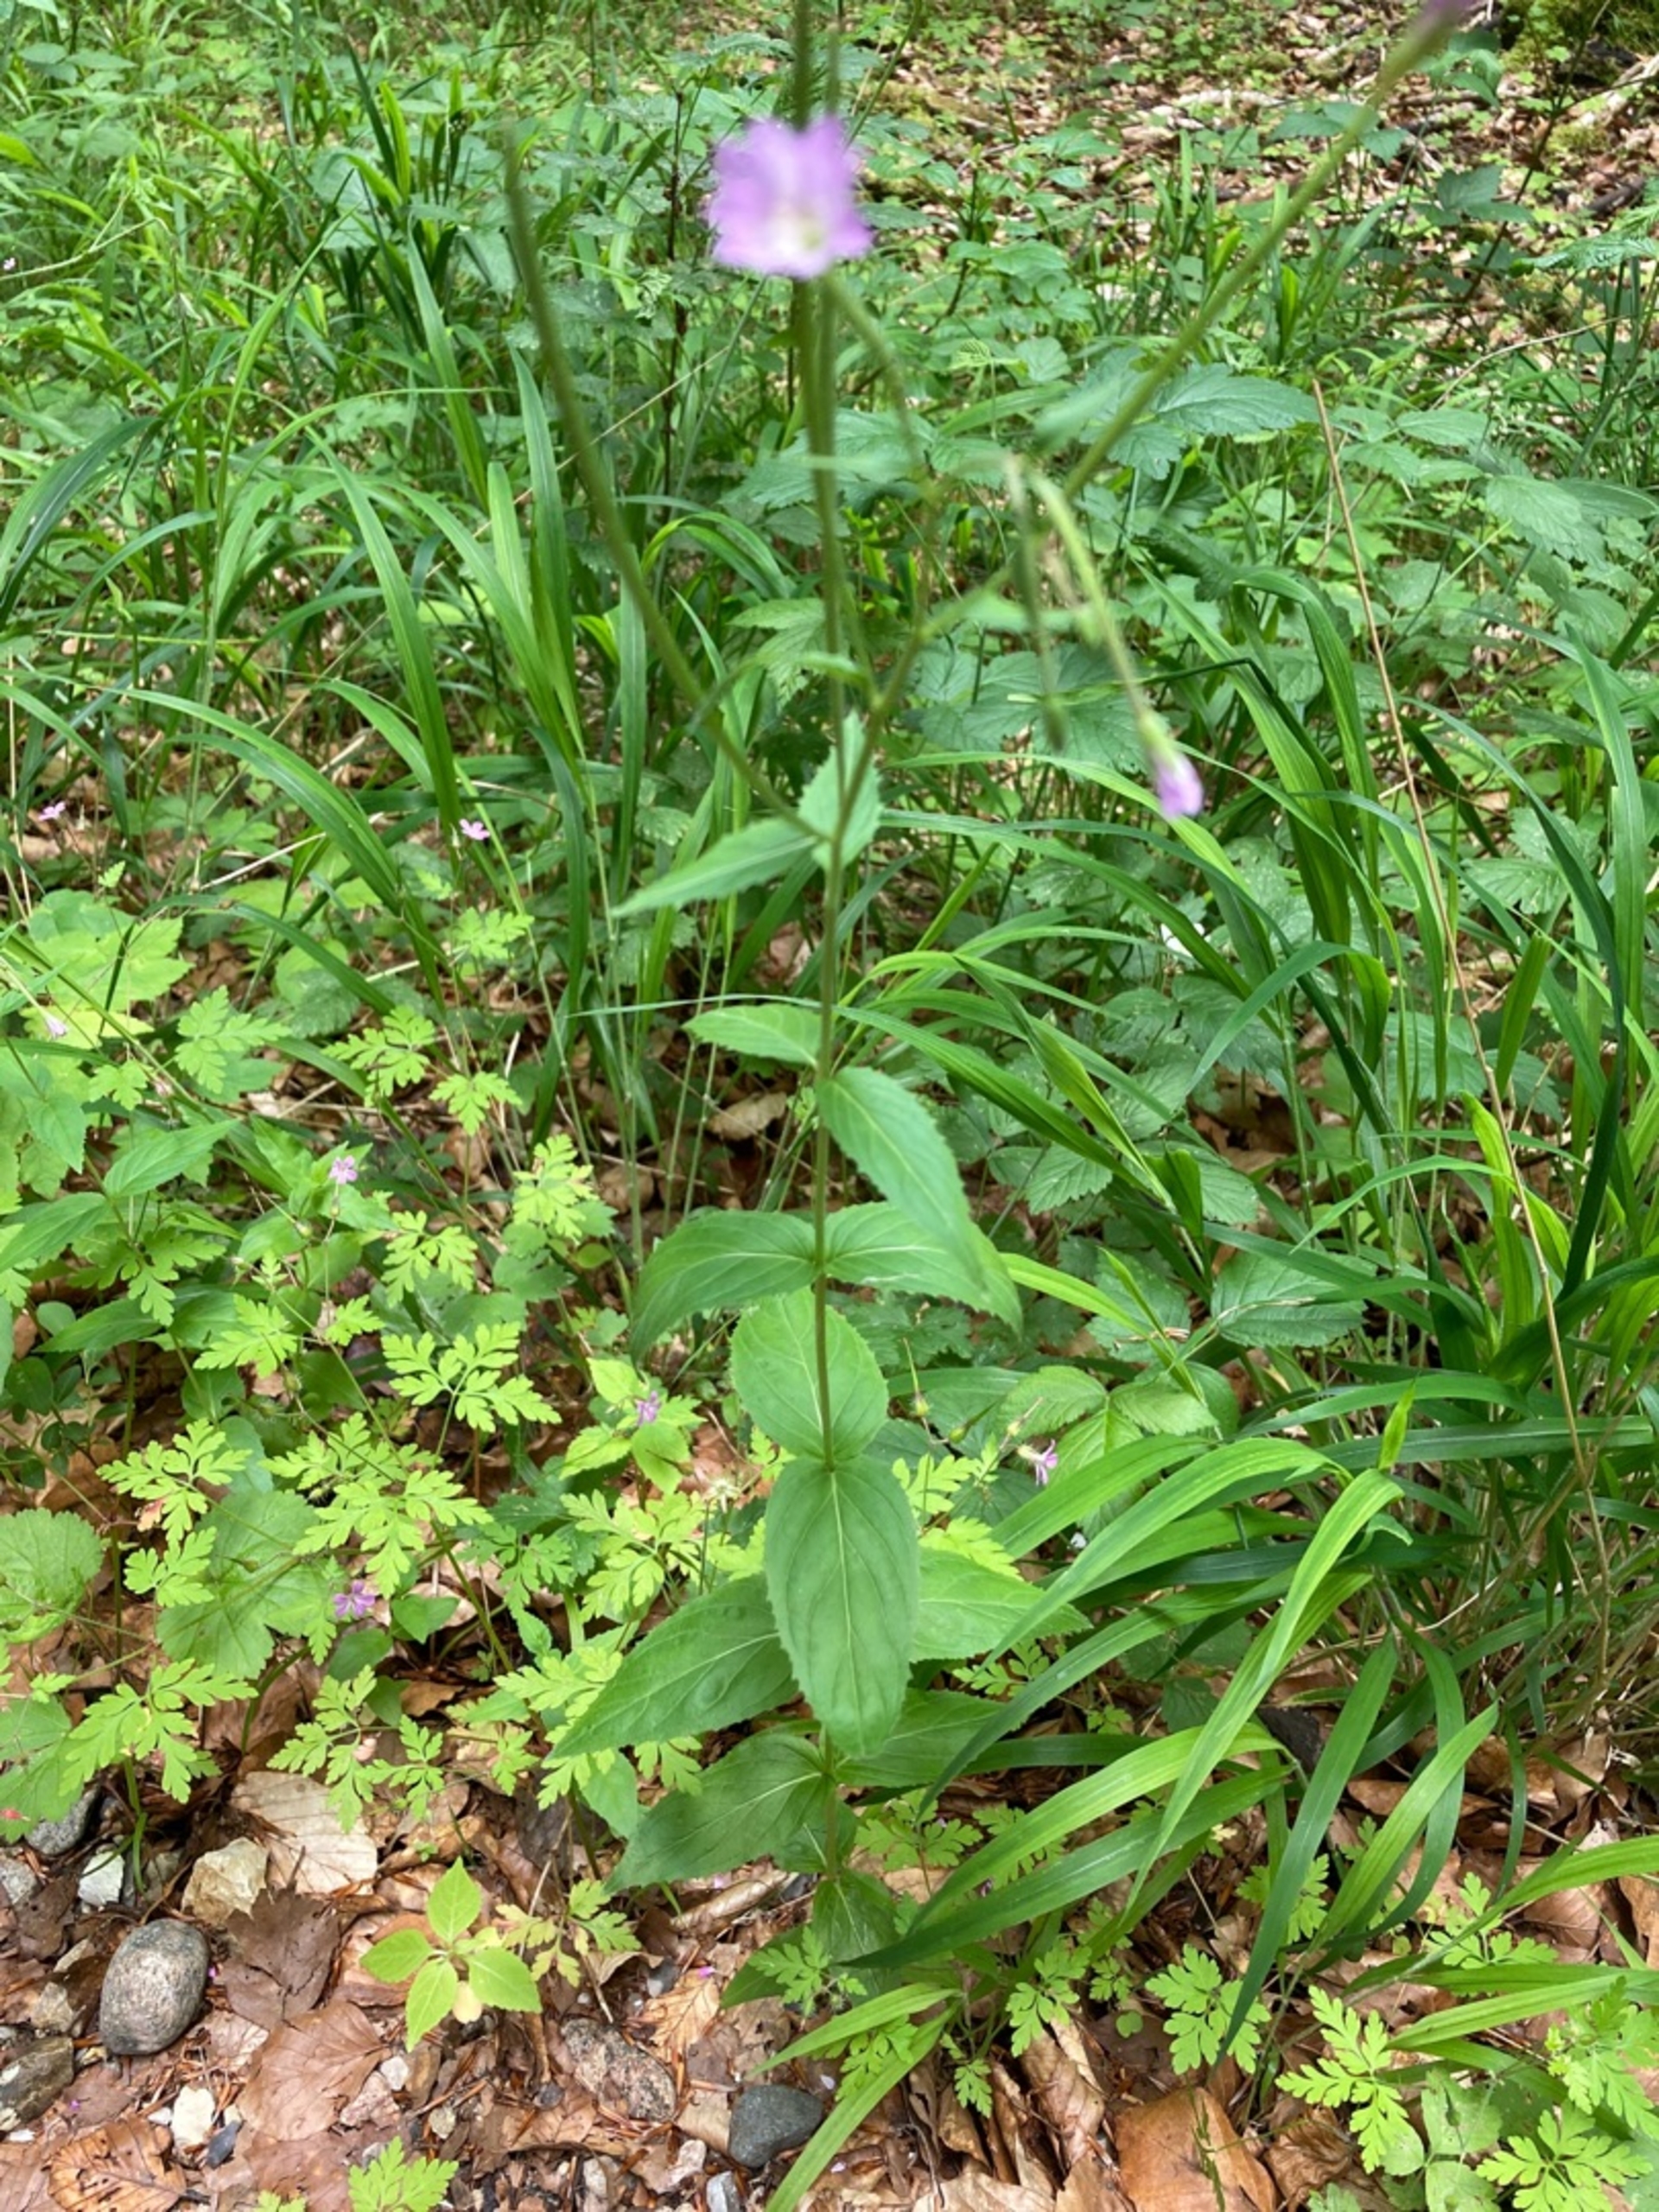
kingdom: Plantae
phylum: Tracheophyta
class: Magnoliopsida
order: Myrtales
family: Onagraceae
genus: Epilobium
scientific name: Epilobium montanum
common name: Glat dueurt
